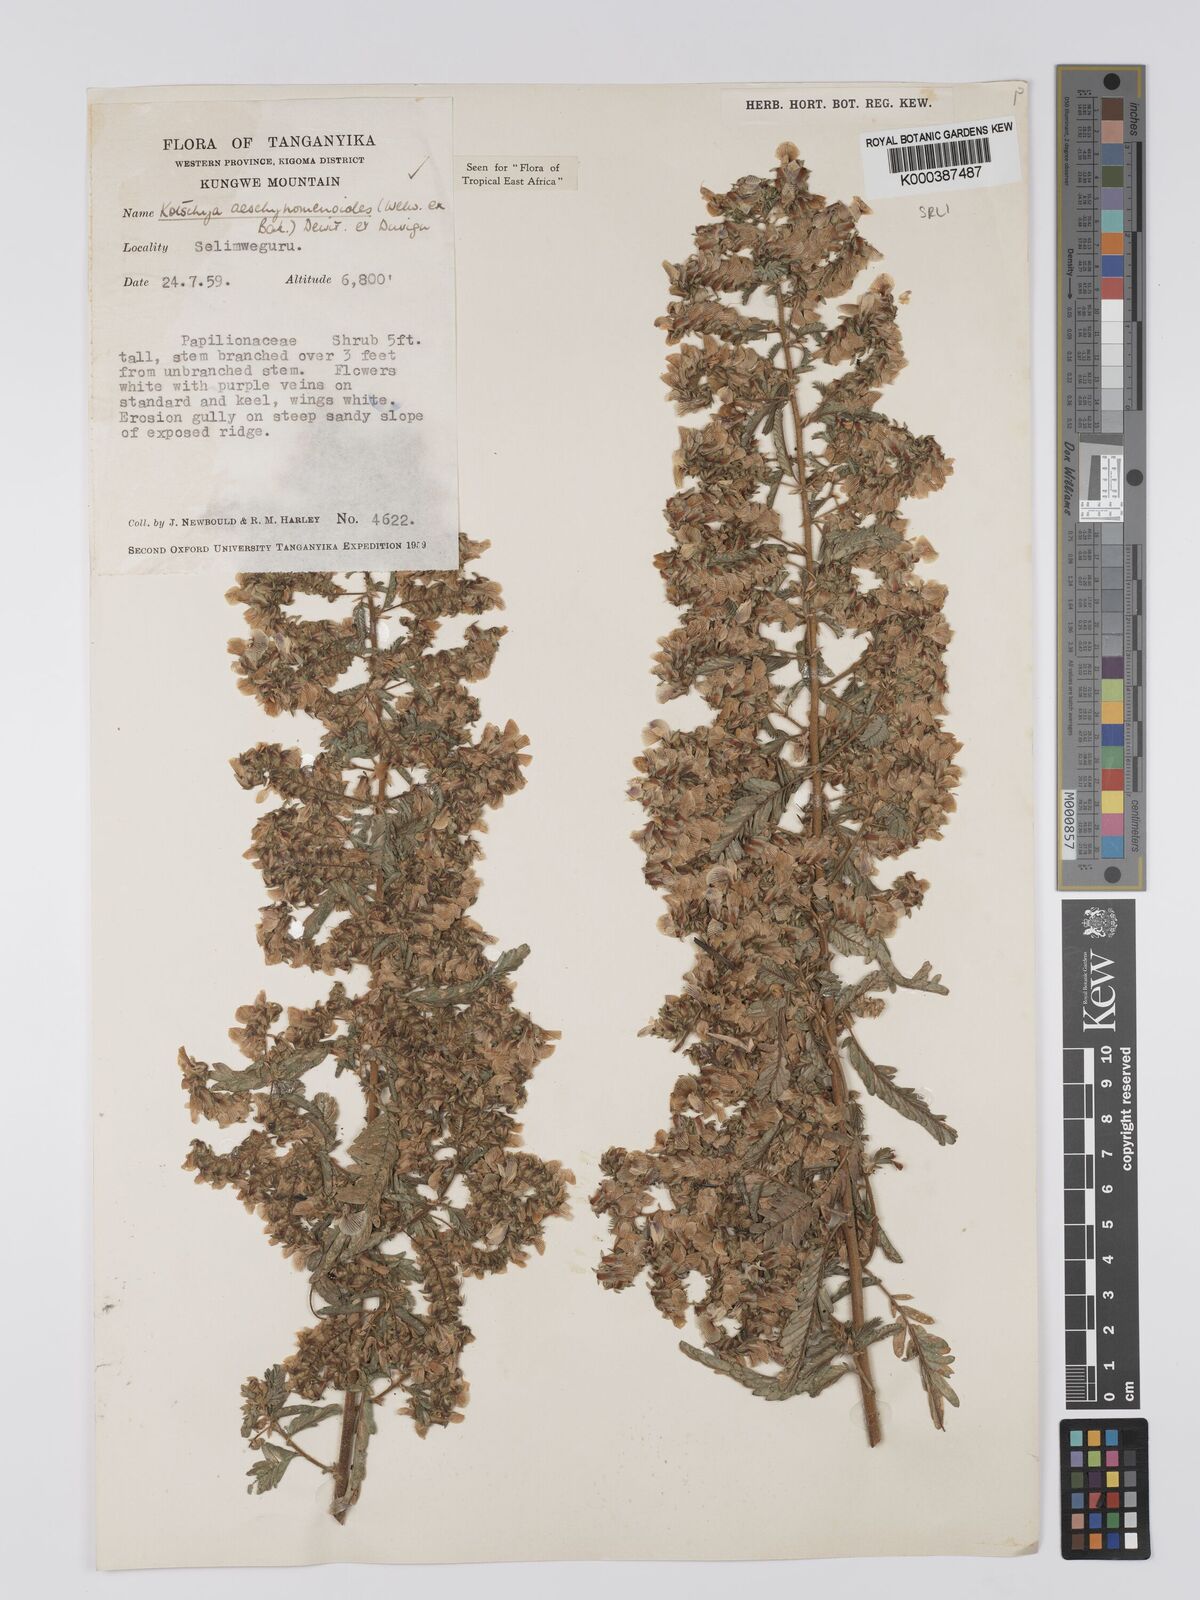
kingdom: Plantae
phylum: Tracheophyta
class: Magnoliopsida
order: Fabales
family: Fabaceae
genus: Kotschya
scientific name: Kotschya aeschynomenoides
